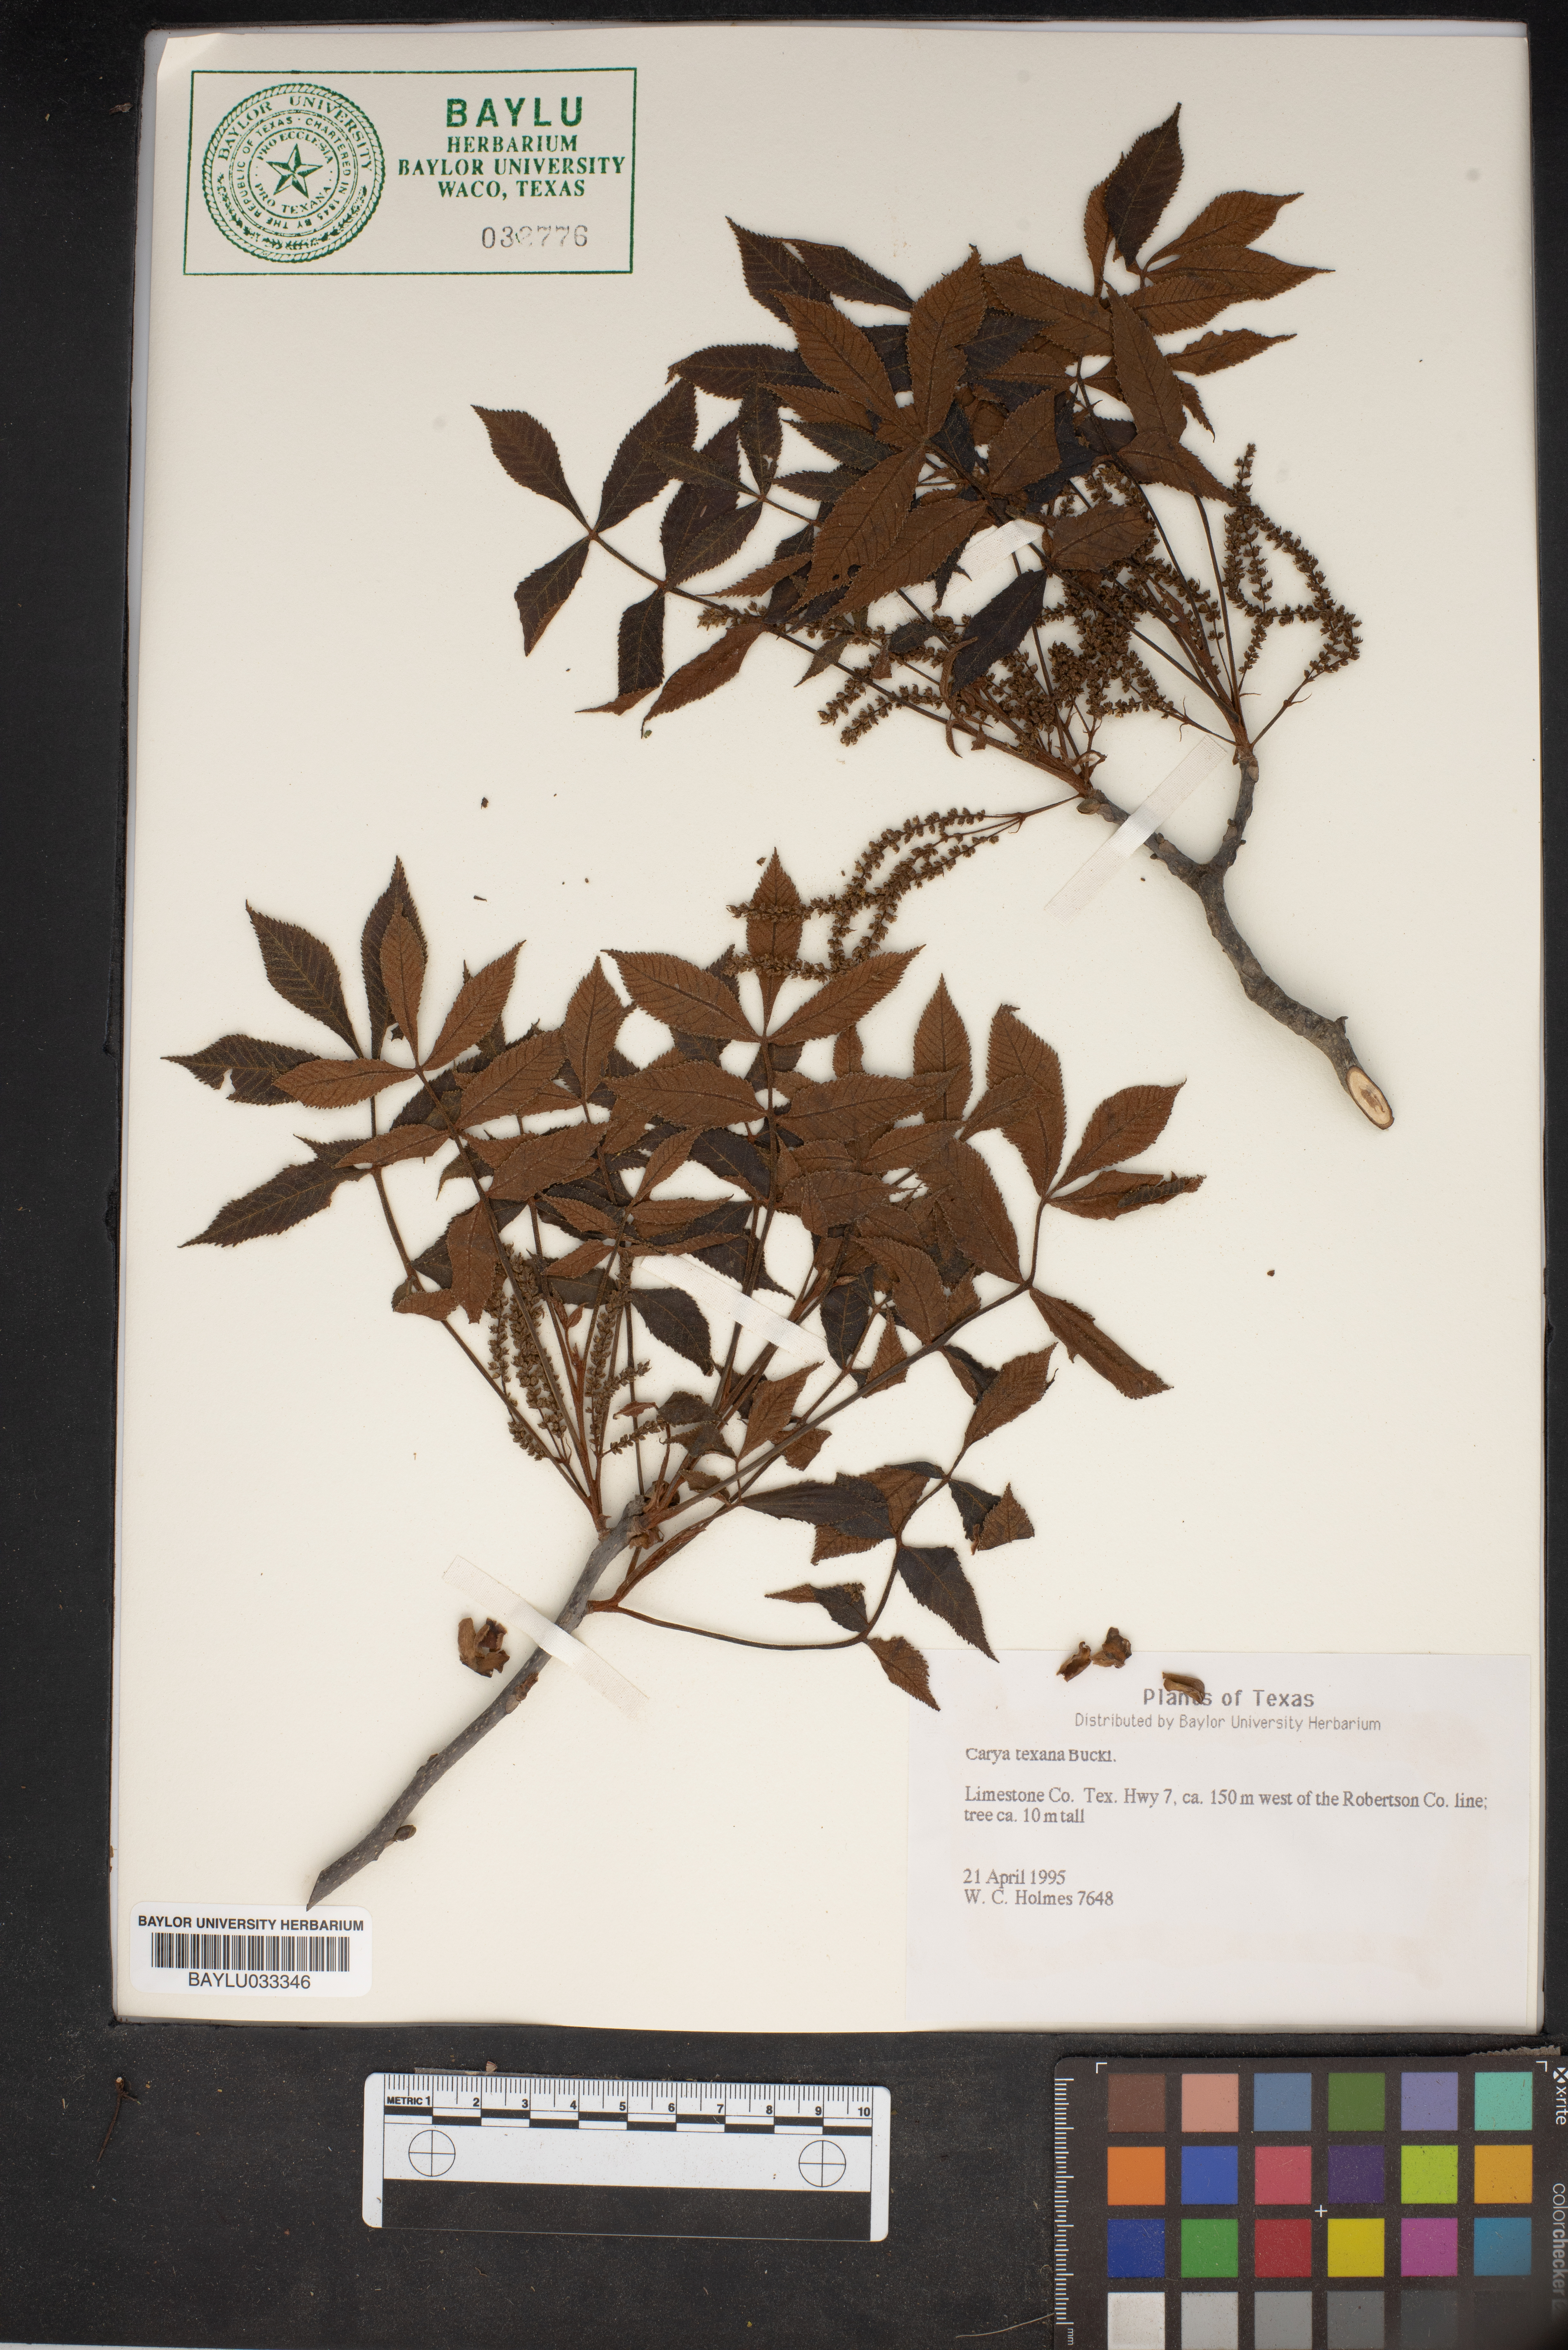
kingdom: Plantae
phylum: Tracheophyta
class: Magnoliopsida
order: Fagales
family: Juglandaceae
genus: Carya
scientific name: Carya texana
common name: Black hickory
